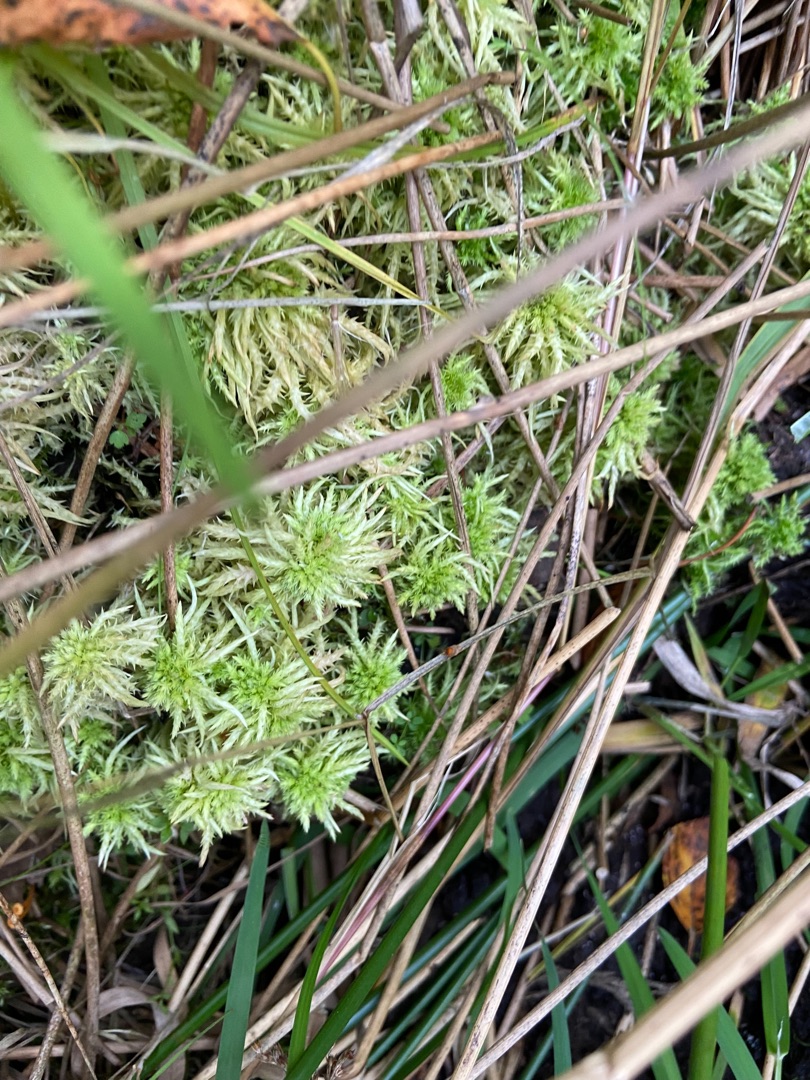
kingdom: Plantae
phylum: Bryophyta
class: Sphagnopsida
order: Sphagnales
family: Sphagnaceae
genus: Sphagnum
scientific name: Sphagnum squarrosum
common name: Udspærret tørvemos
